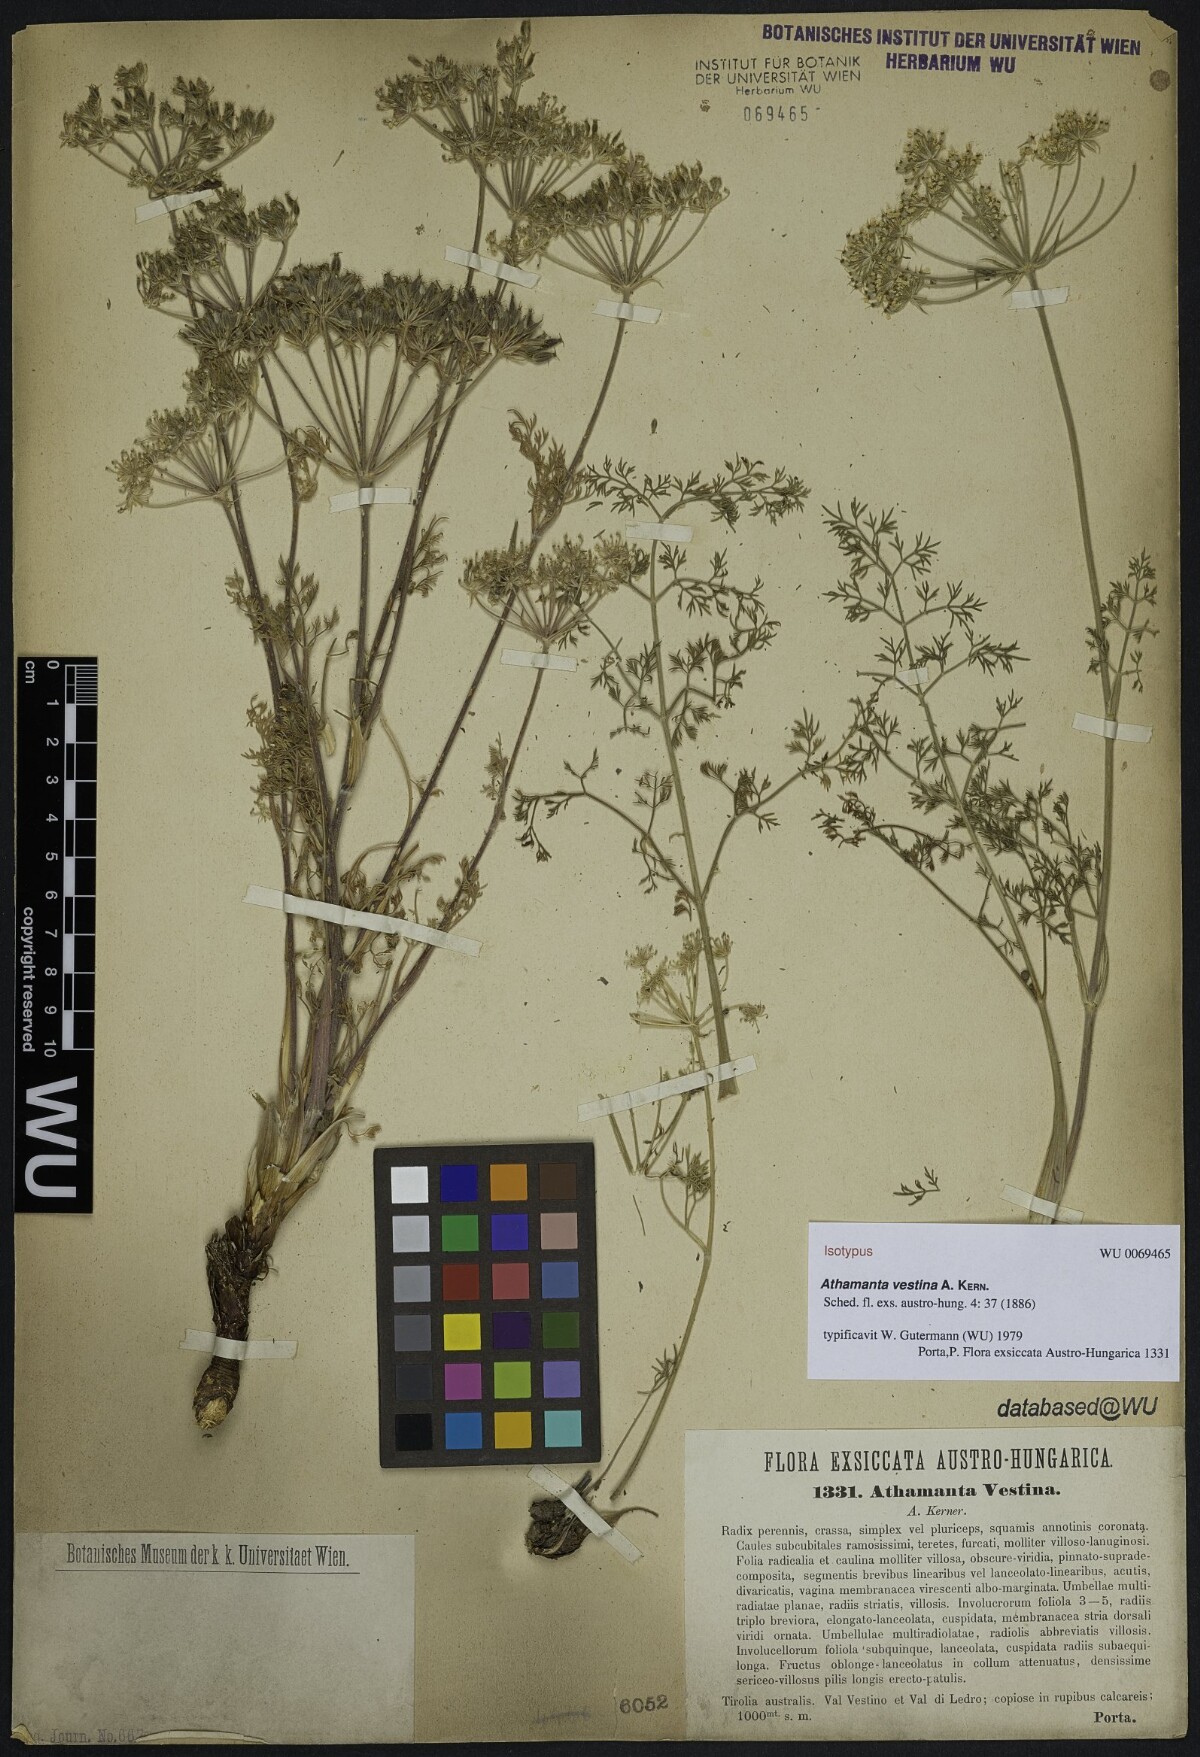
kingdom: Plantae
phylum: Tracheophyta
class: Magnoliopsida
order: Apiales
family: Apiaceae
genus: Athamanta
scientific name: Athamanta vestina
